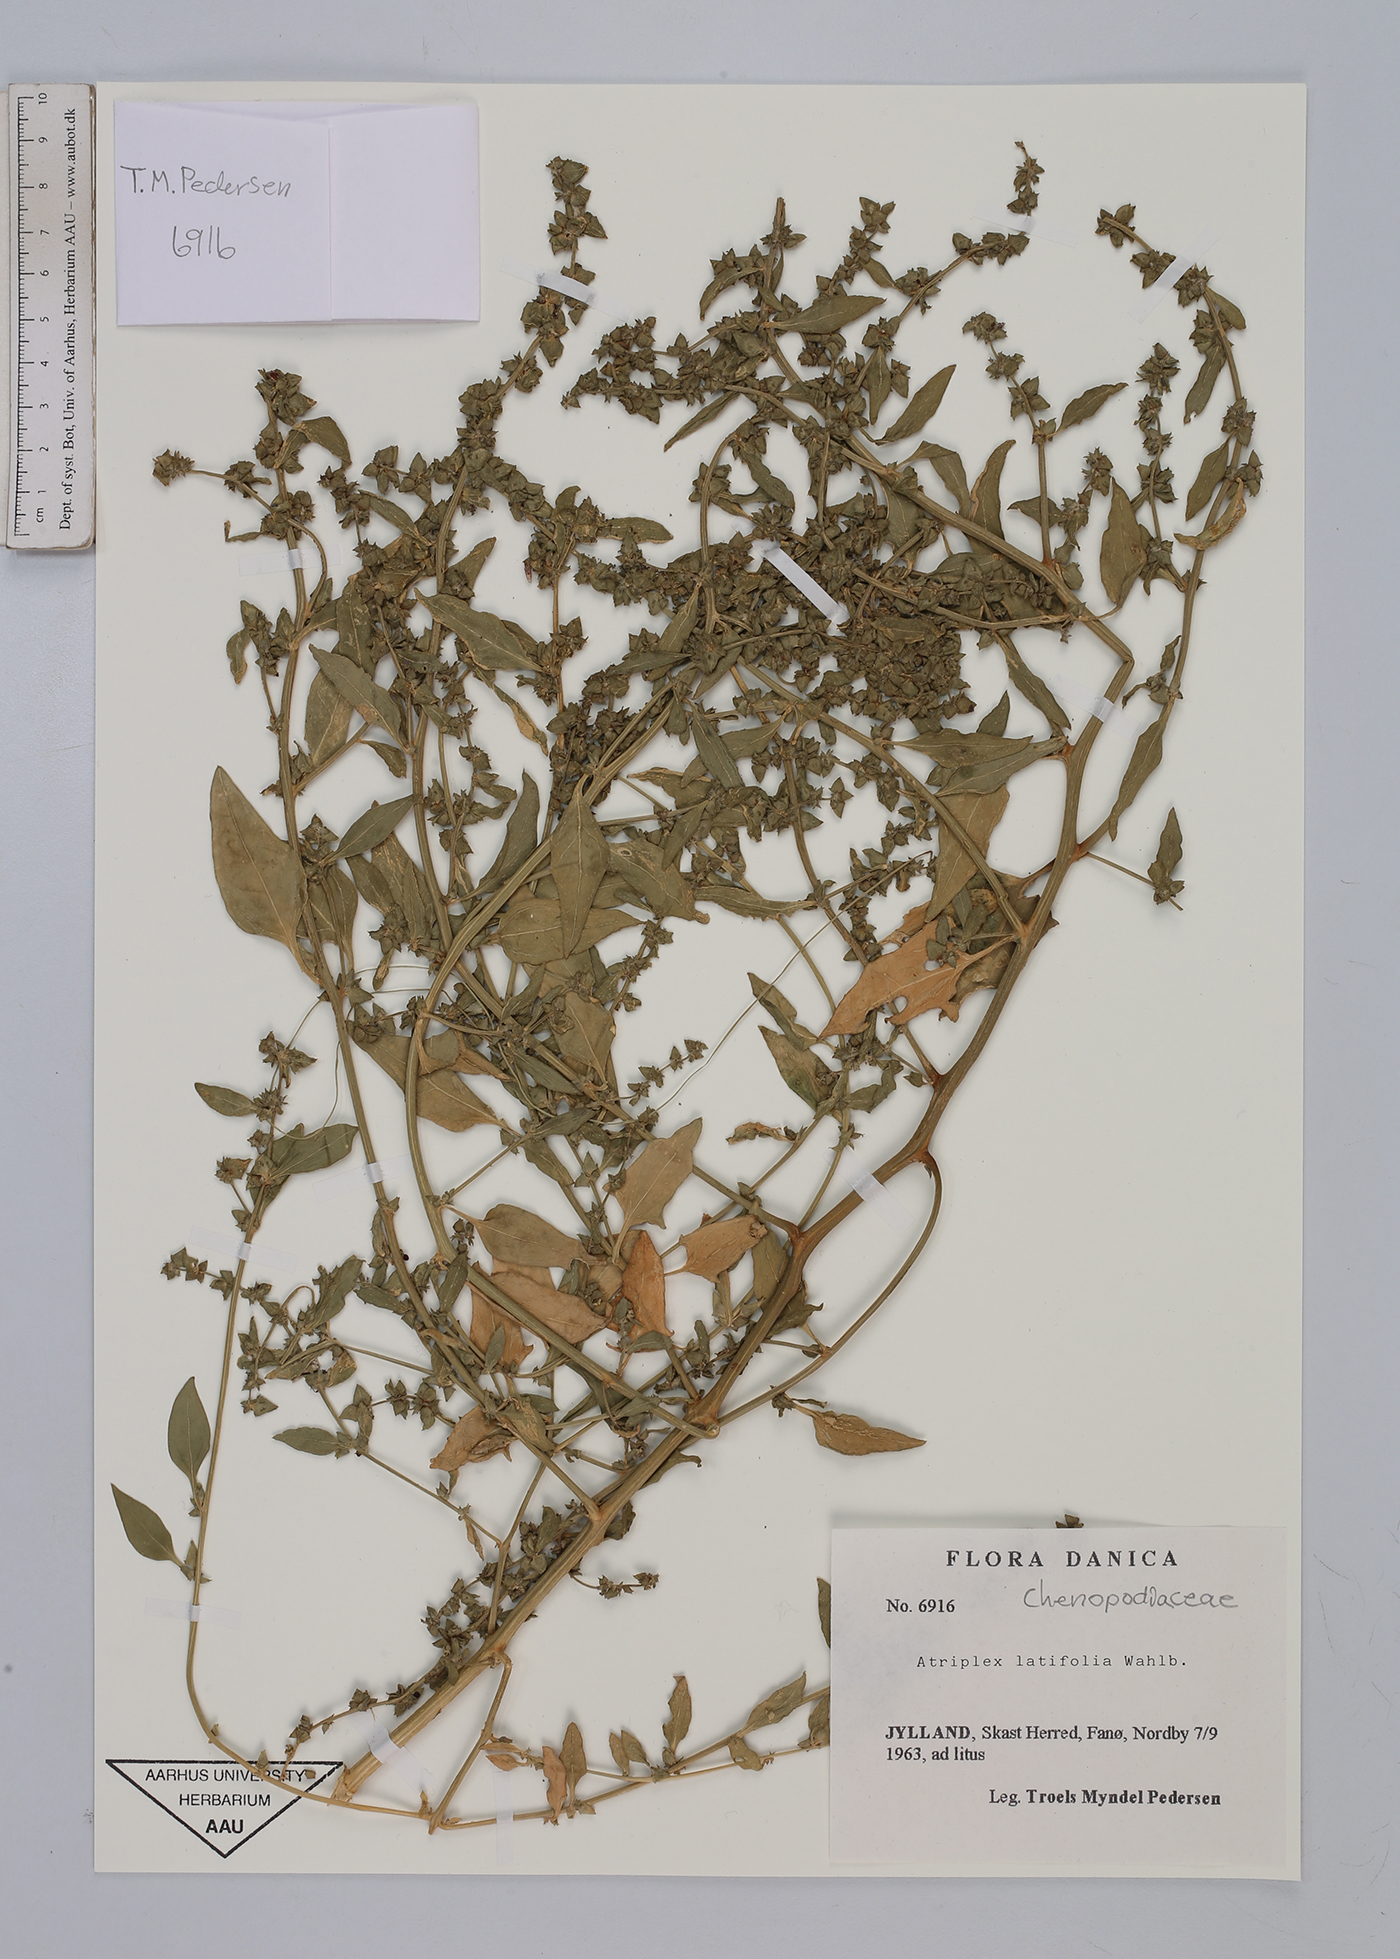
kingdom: Plantae
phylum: Tracheophyta
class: Magnoliopsida
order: Caryophyllales
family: Amaranthaceae
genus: Atriplex
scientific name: Atriplex prostrata
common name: Spear-leaved orache
